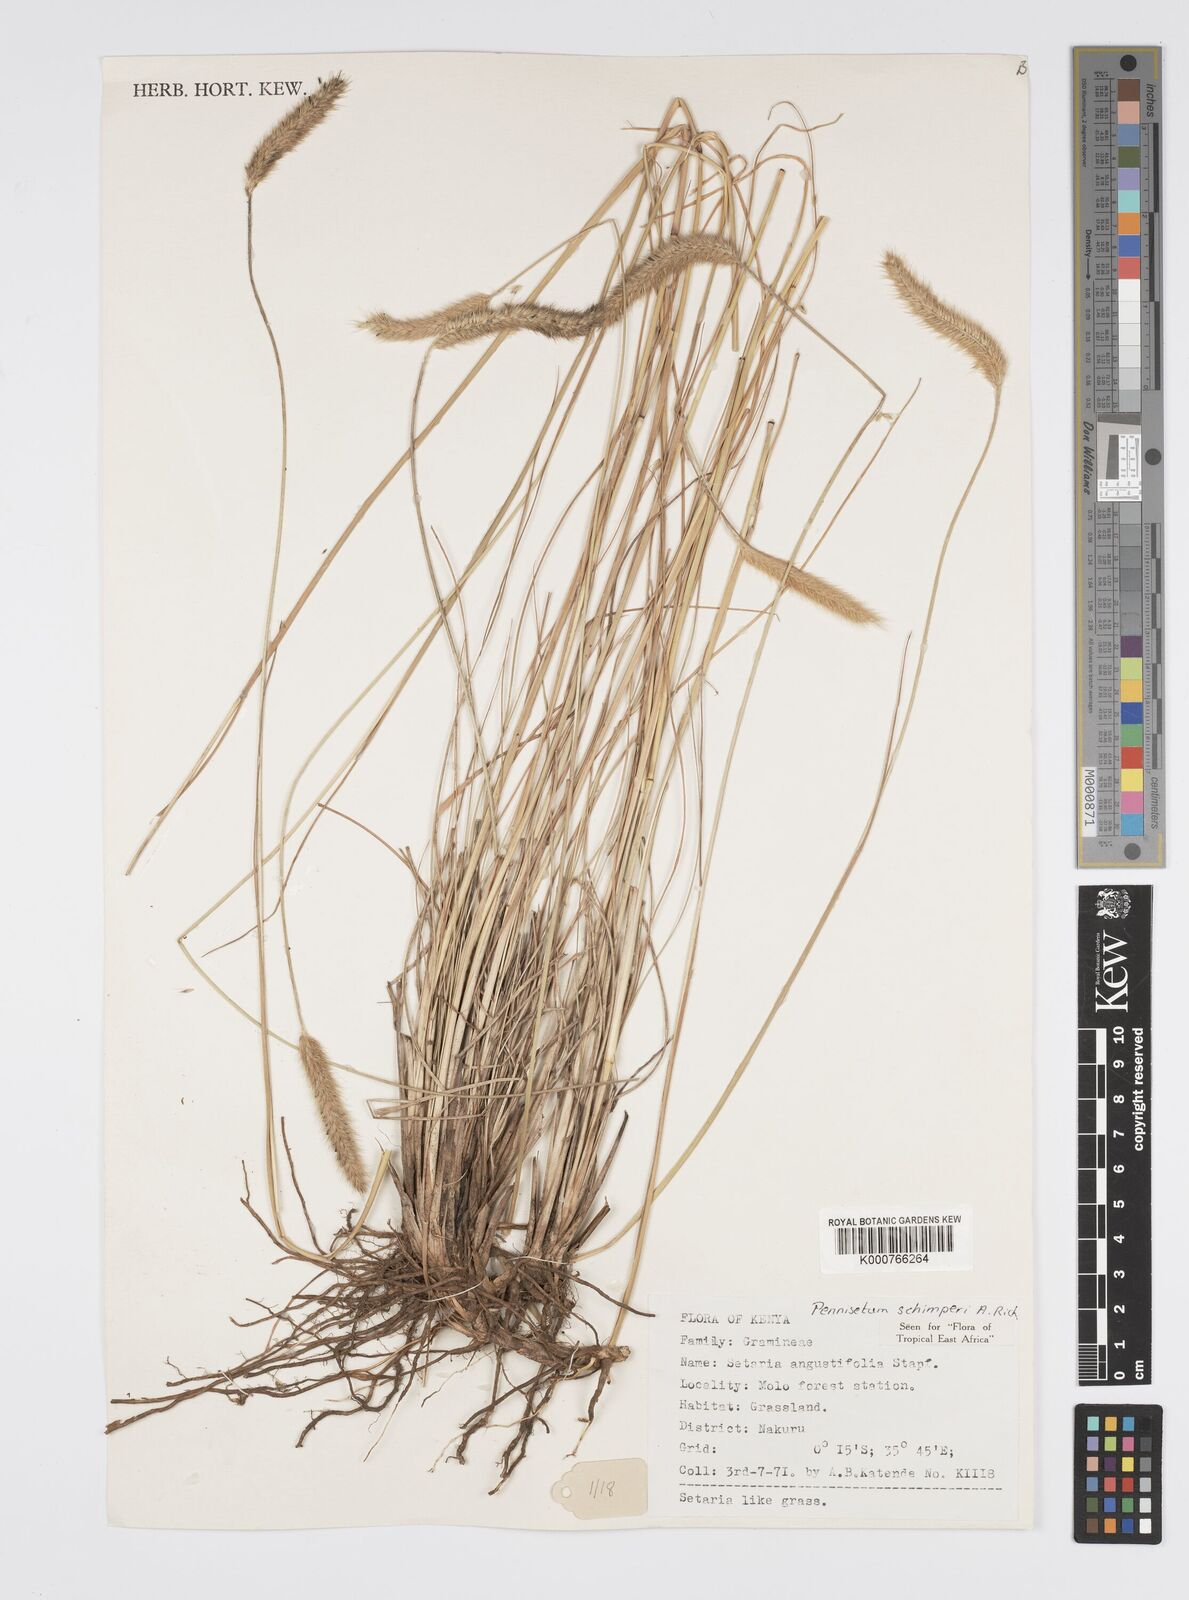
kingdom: Plantae
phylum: Tracheophyta
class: Liliopsida
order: Poales
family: Poaceae
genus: Cenchrus
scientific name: Cenchrus sphacelatus
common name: Bulgras
